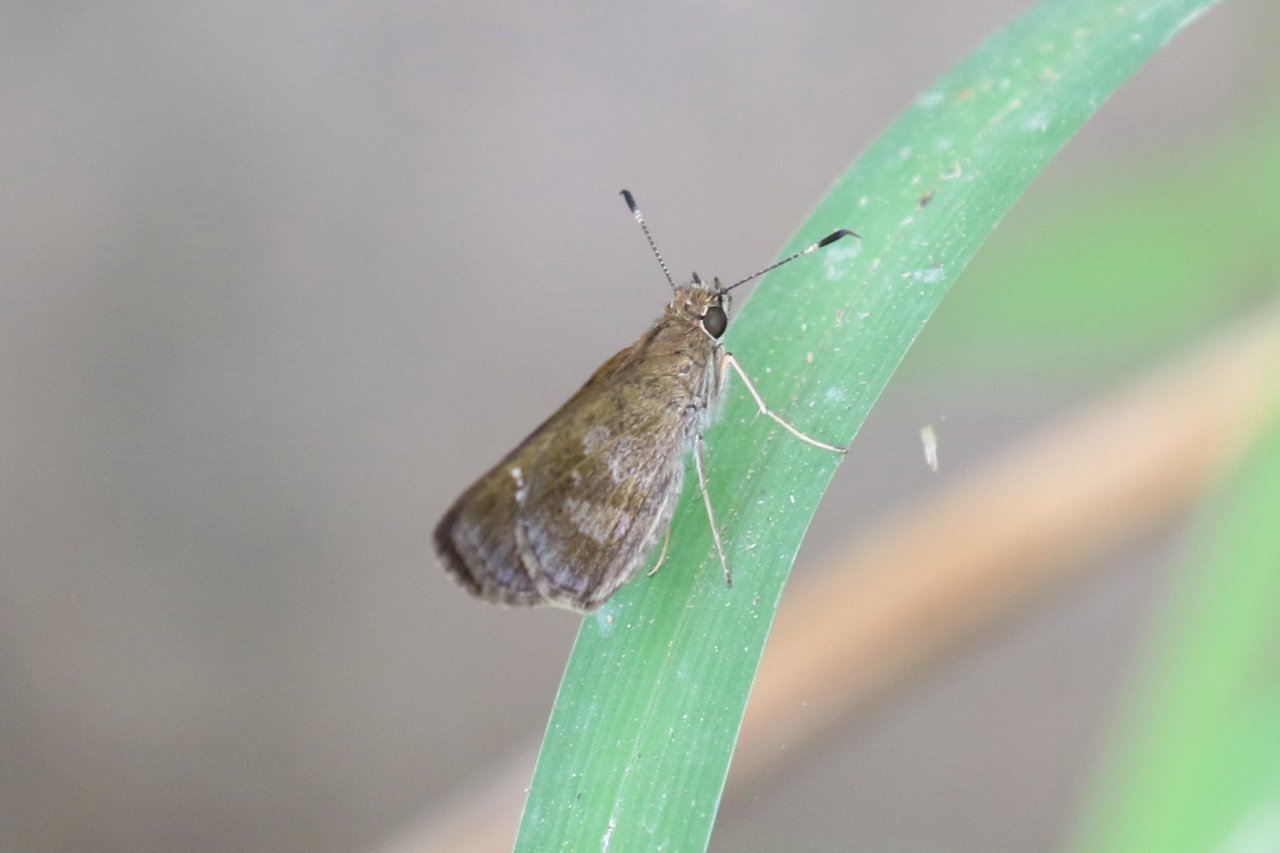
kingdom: Animalia
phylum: Arthropoda
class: Insecta
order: Lepidoptera
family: Hesperiidae
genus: Cymaenes
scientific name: Cymaenes odilia
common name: Fawn-spotted Skipper
